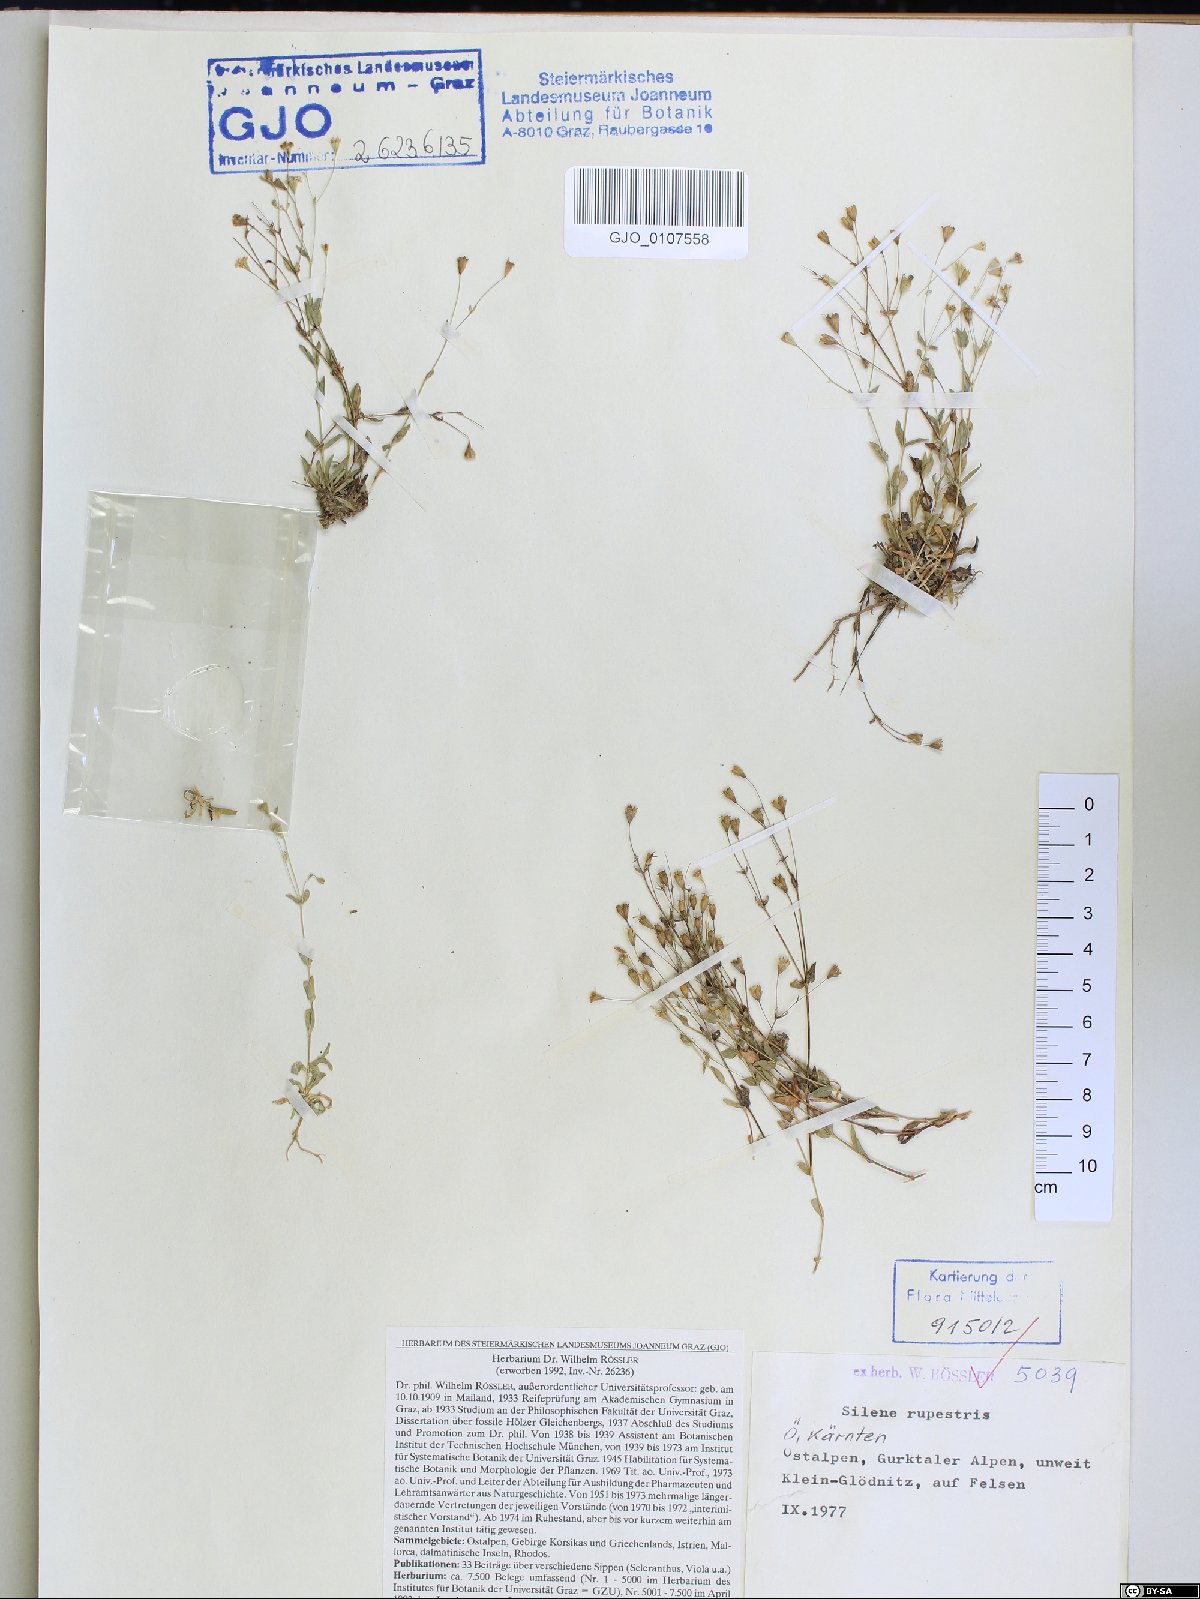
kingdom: Plantae
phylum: Tracheophyta
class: Magnoliopsida
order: Caryophyllales
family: Caryophyllaceae
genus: Atocion
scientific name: Atocion rupestre
